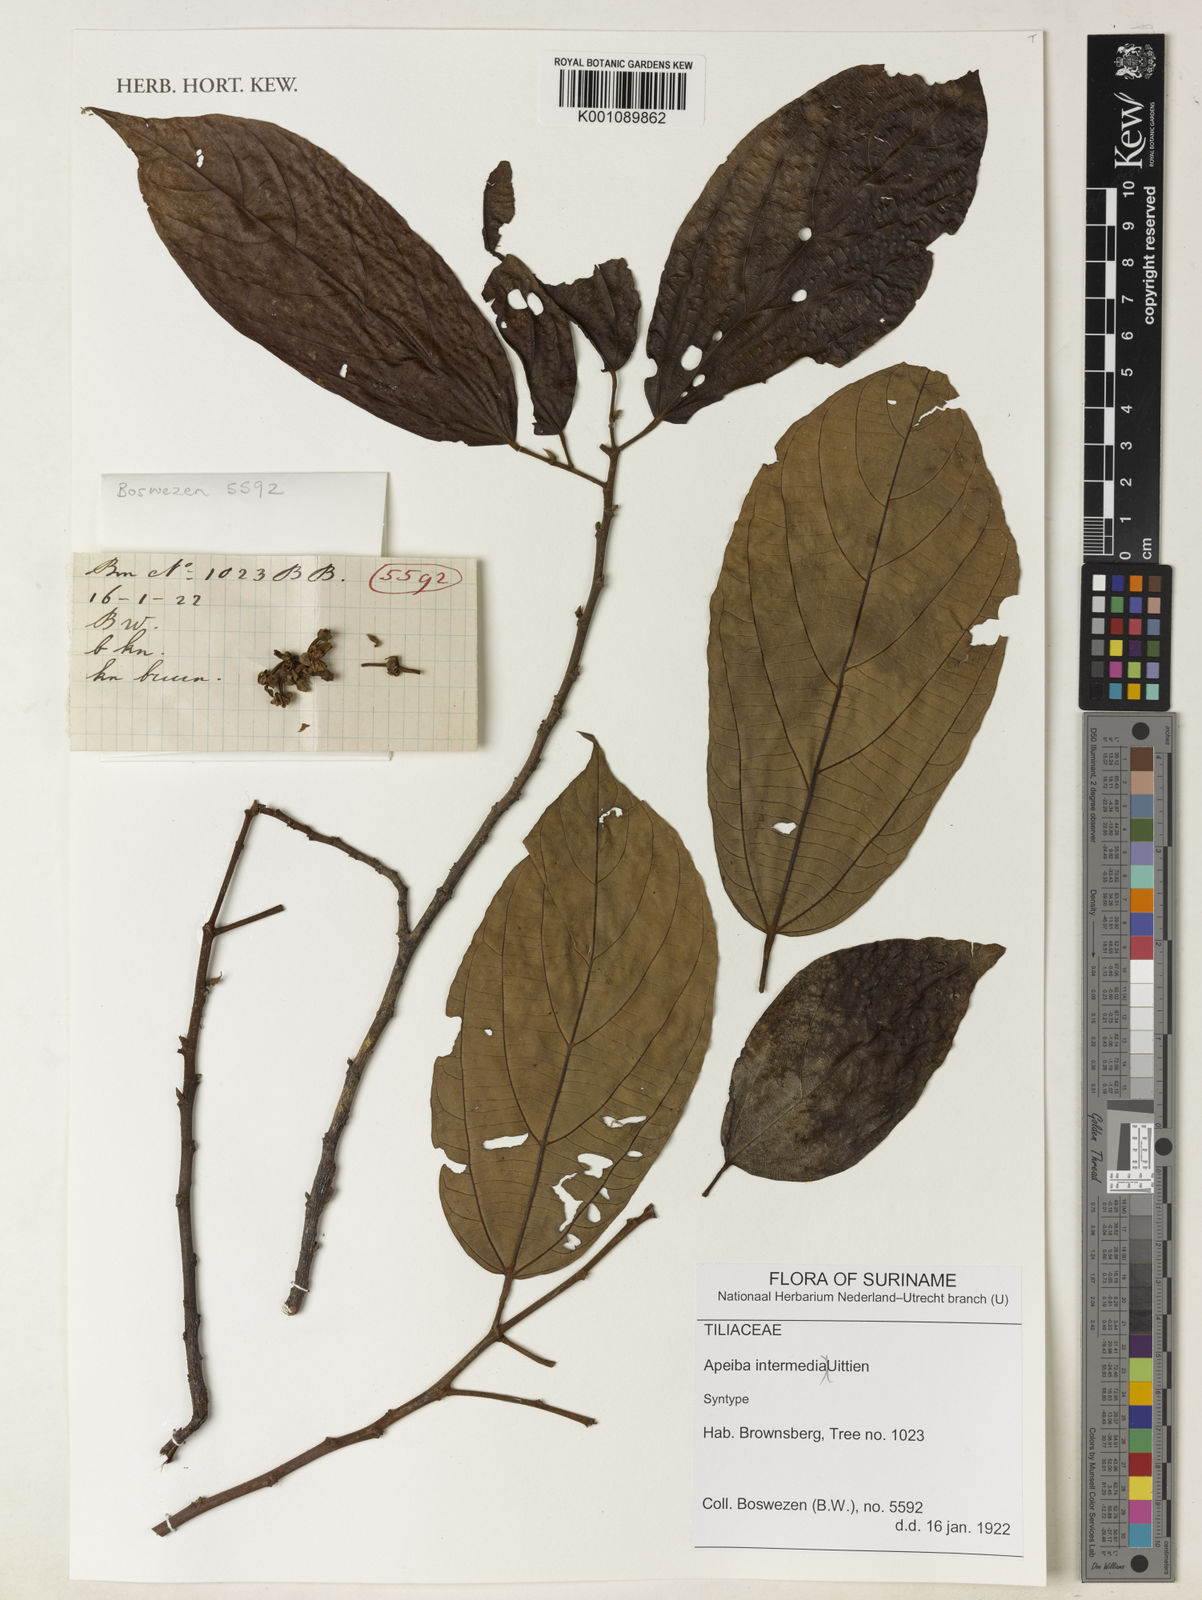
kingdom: Plantae
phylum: Tracheophyta
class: Magnoliopsida
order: Malvales
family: Malvaceae
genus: Apeiba
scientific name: Apeiba intermedia
